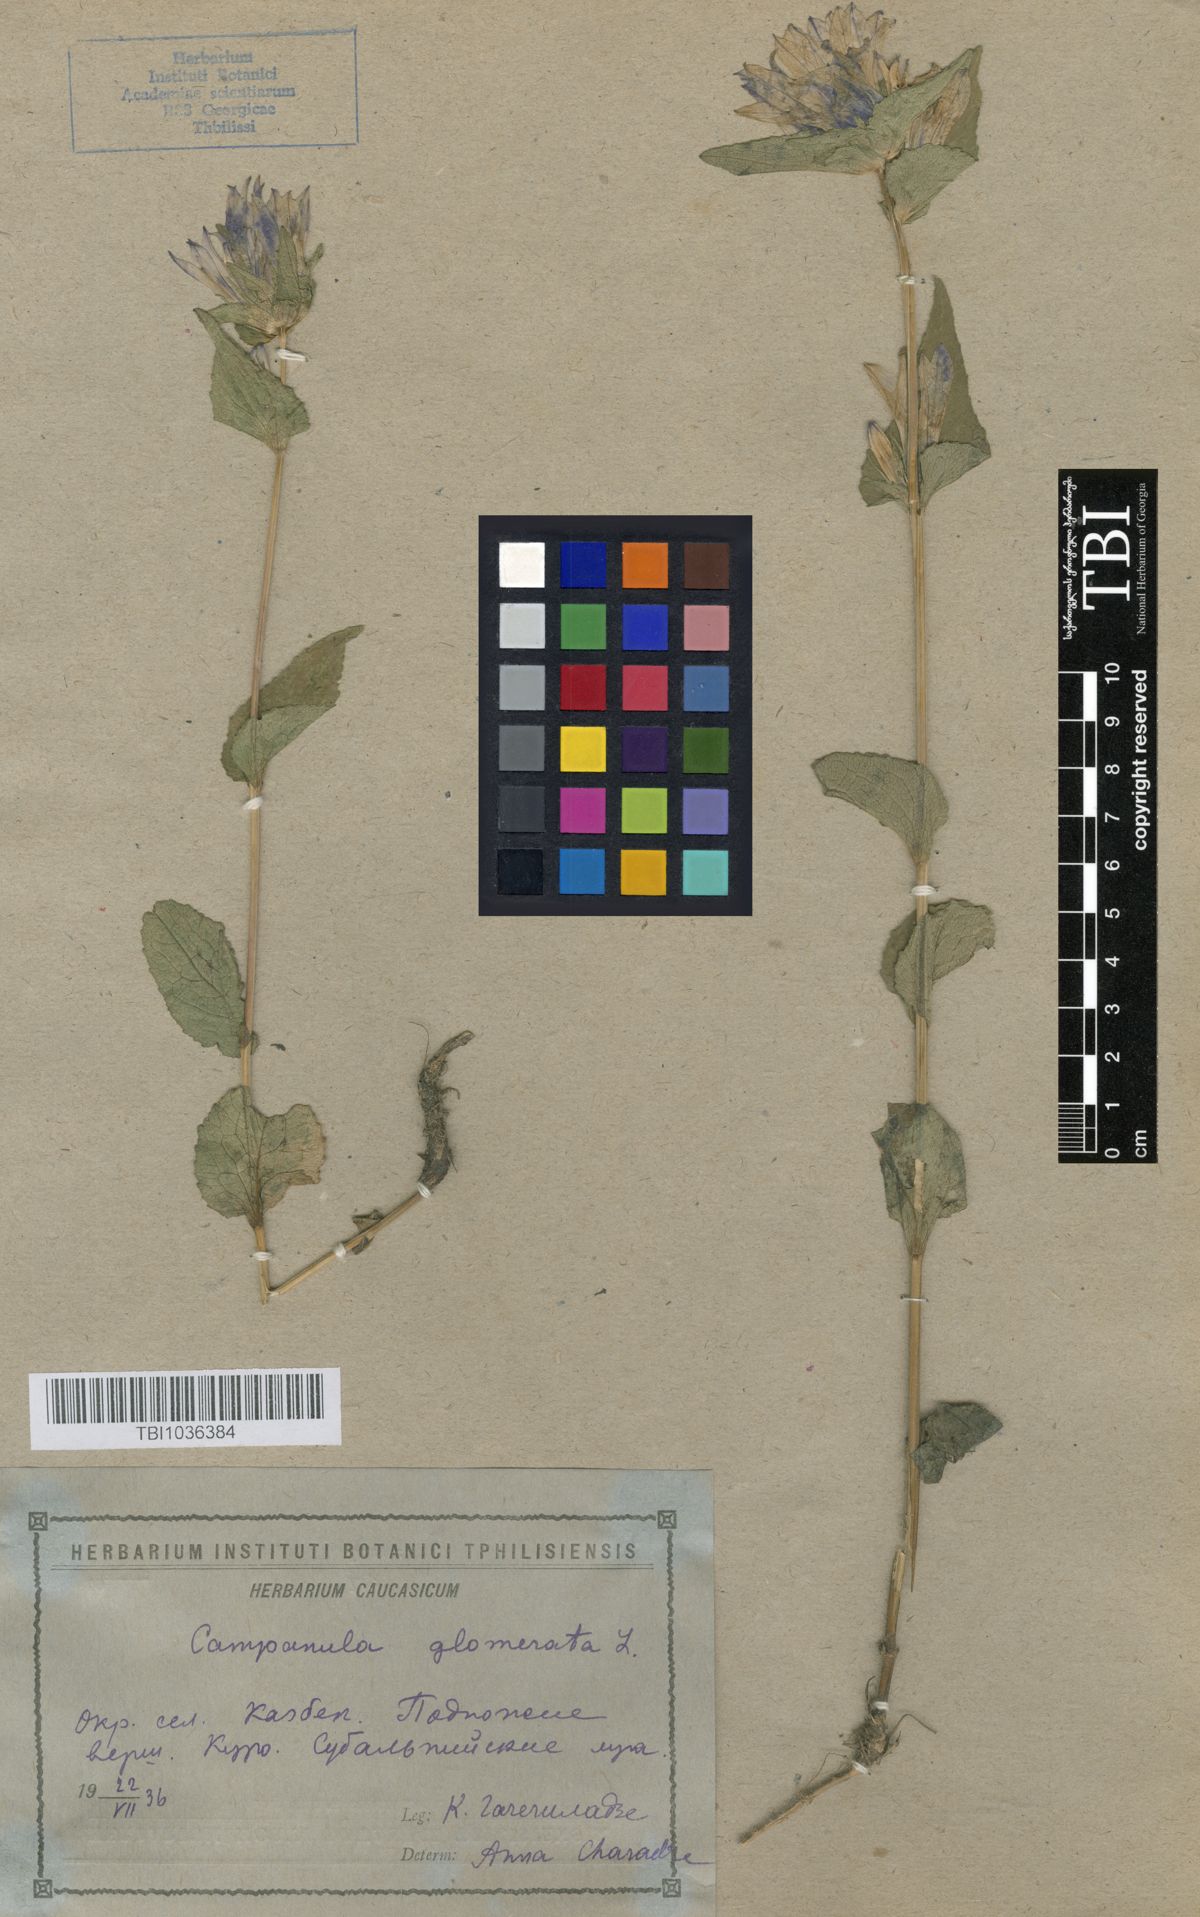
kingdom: Plantae
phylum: Tracheophyta
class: Magnoliopsida
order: Asterales
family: Campanulaceae
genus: Campanula
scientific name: Campanula glomerata
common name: Clustered bellflower
